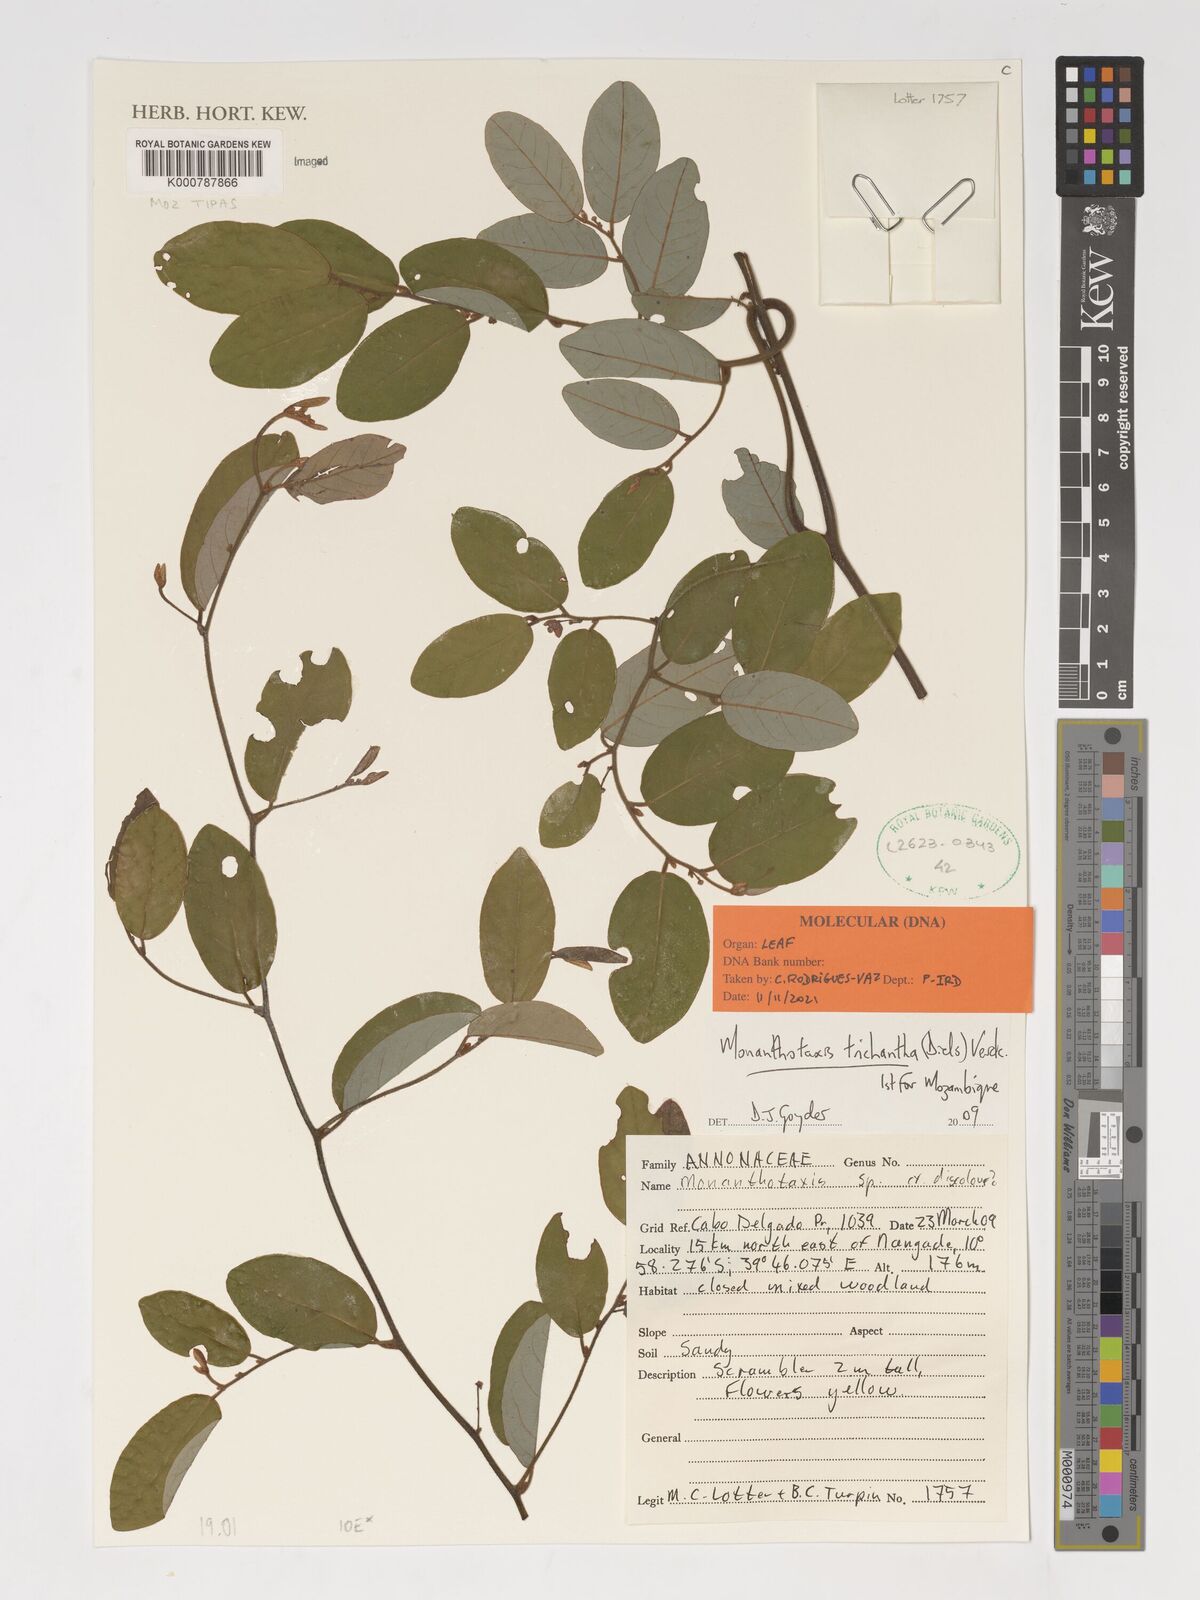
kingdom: Plantae
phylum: Tracheophyta
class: Magnoliopsida
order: Magnoliales
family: Annonaceae
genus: Monanthotaxis
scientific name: Monanthotaxis trichantha
